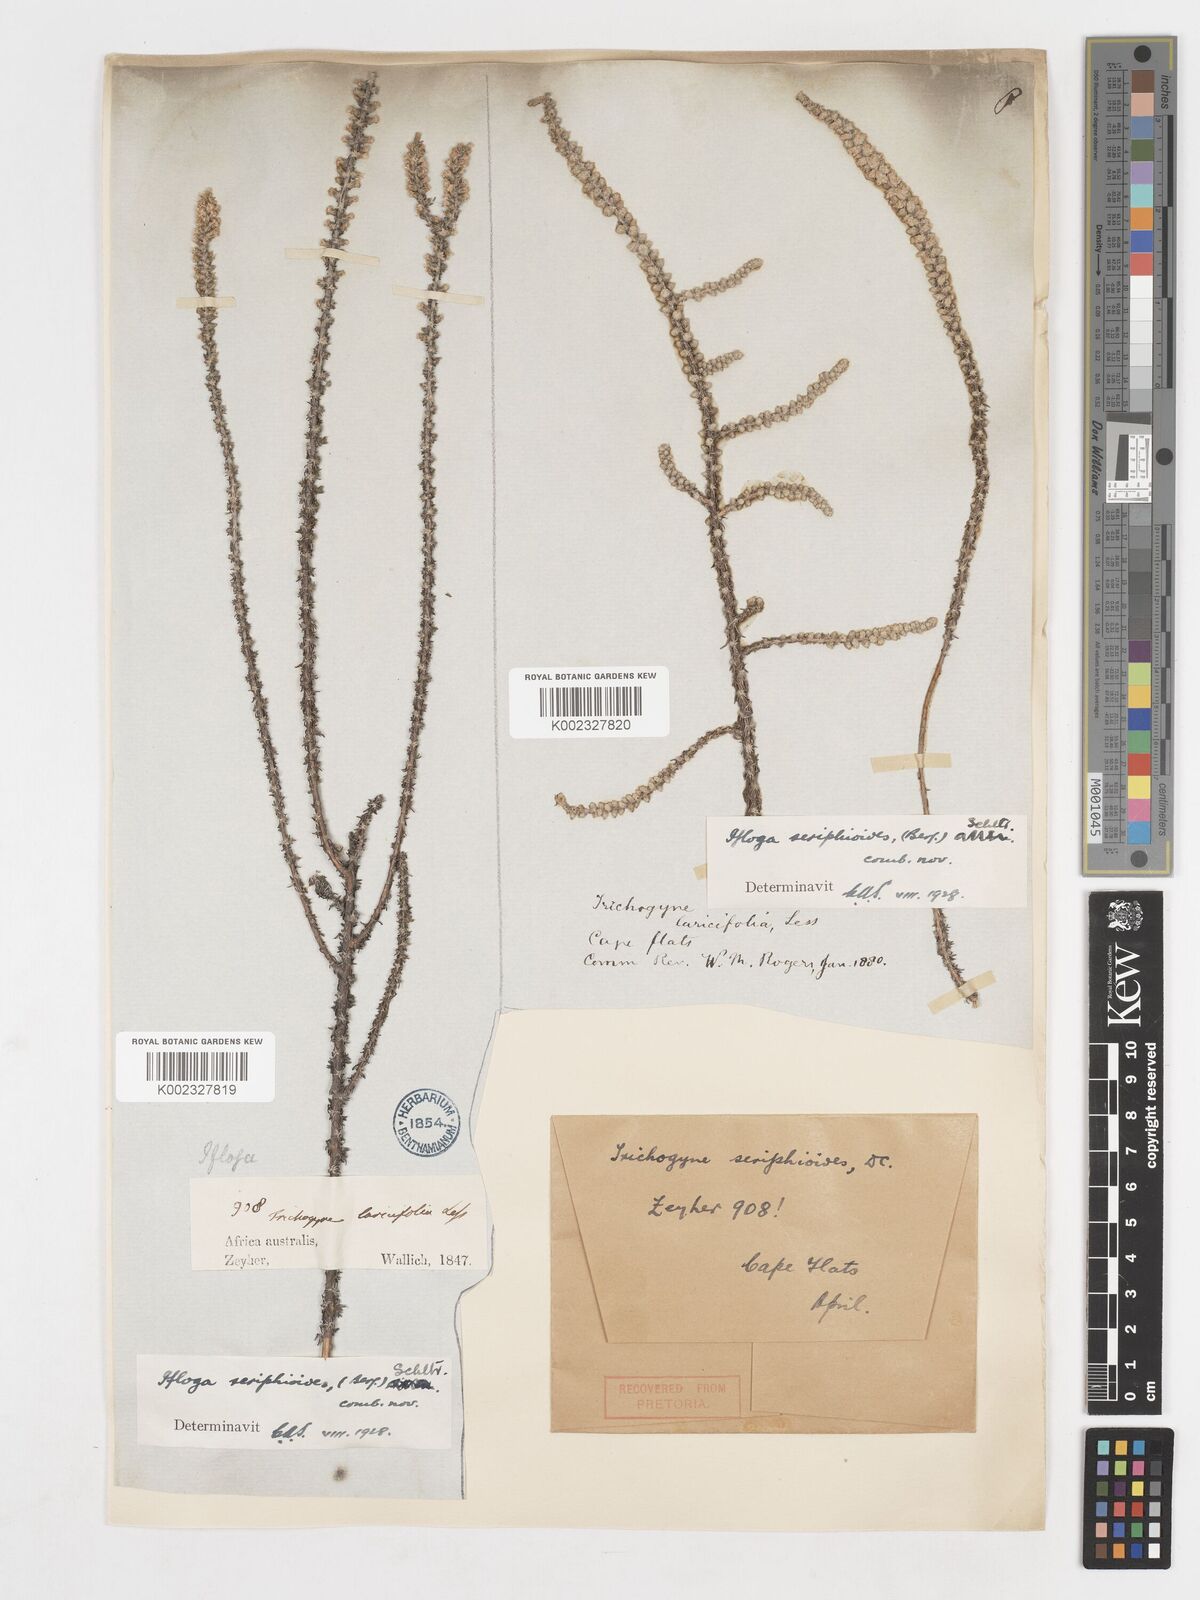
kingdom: Plantae
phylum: Tracheophyta
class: Magnoliopsida
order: Asterales
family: Asteraceae
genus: Ifloga
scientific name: Ifloga ambigua
